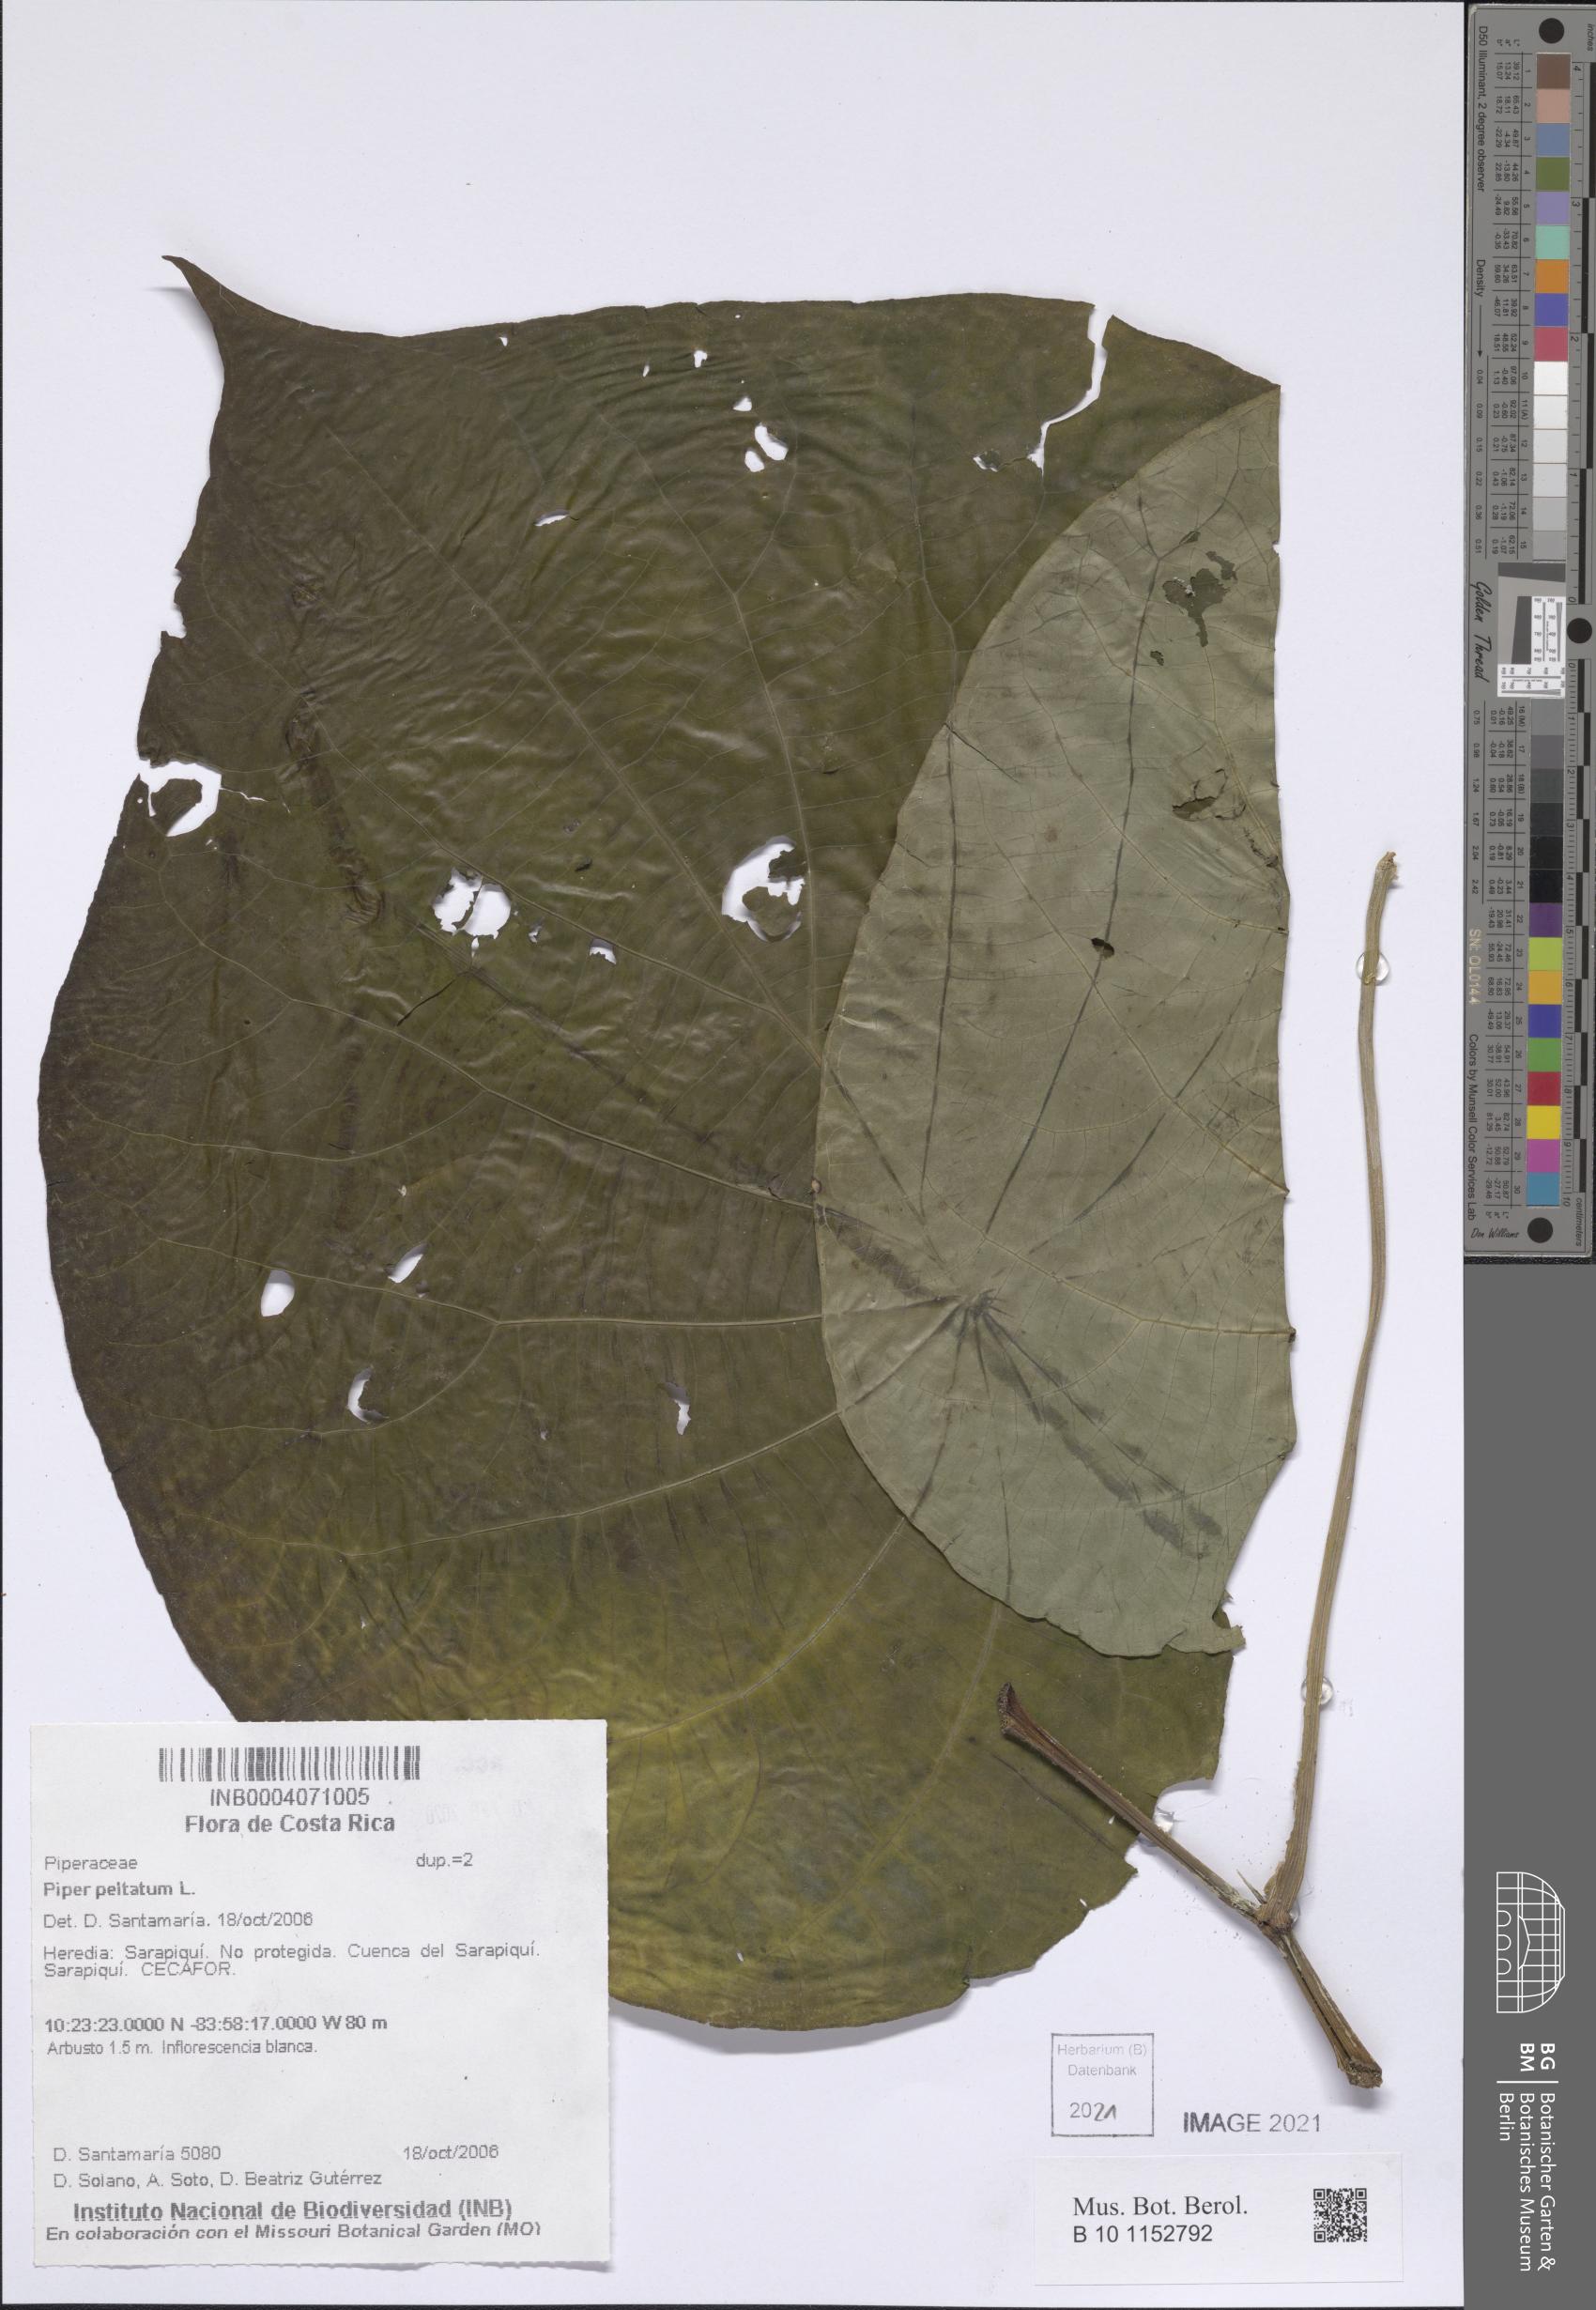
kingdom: Plantae
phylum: Tracheophyta
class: Magnoliopsida
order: Piperales
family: Piperaceae
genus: Piper
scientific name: Piper peltatum
